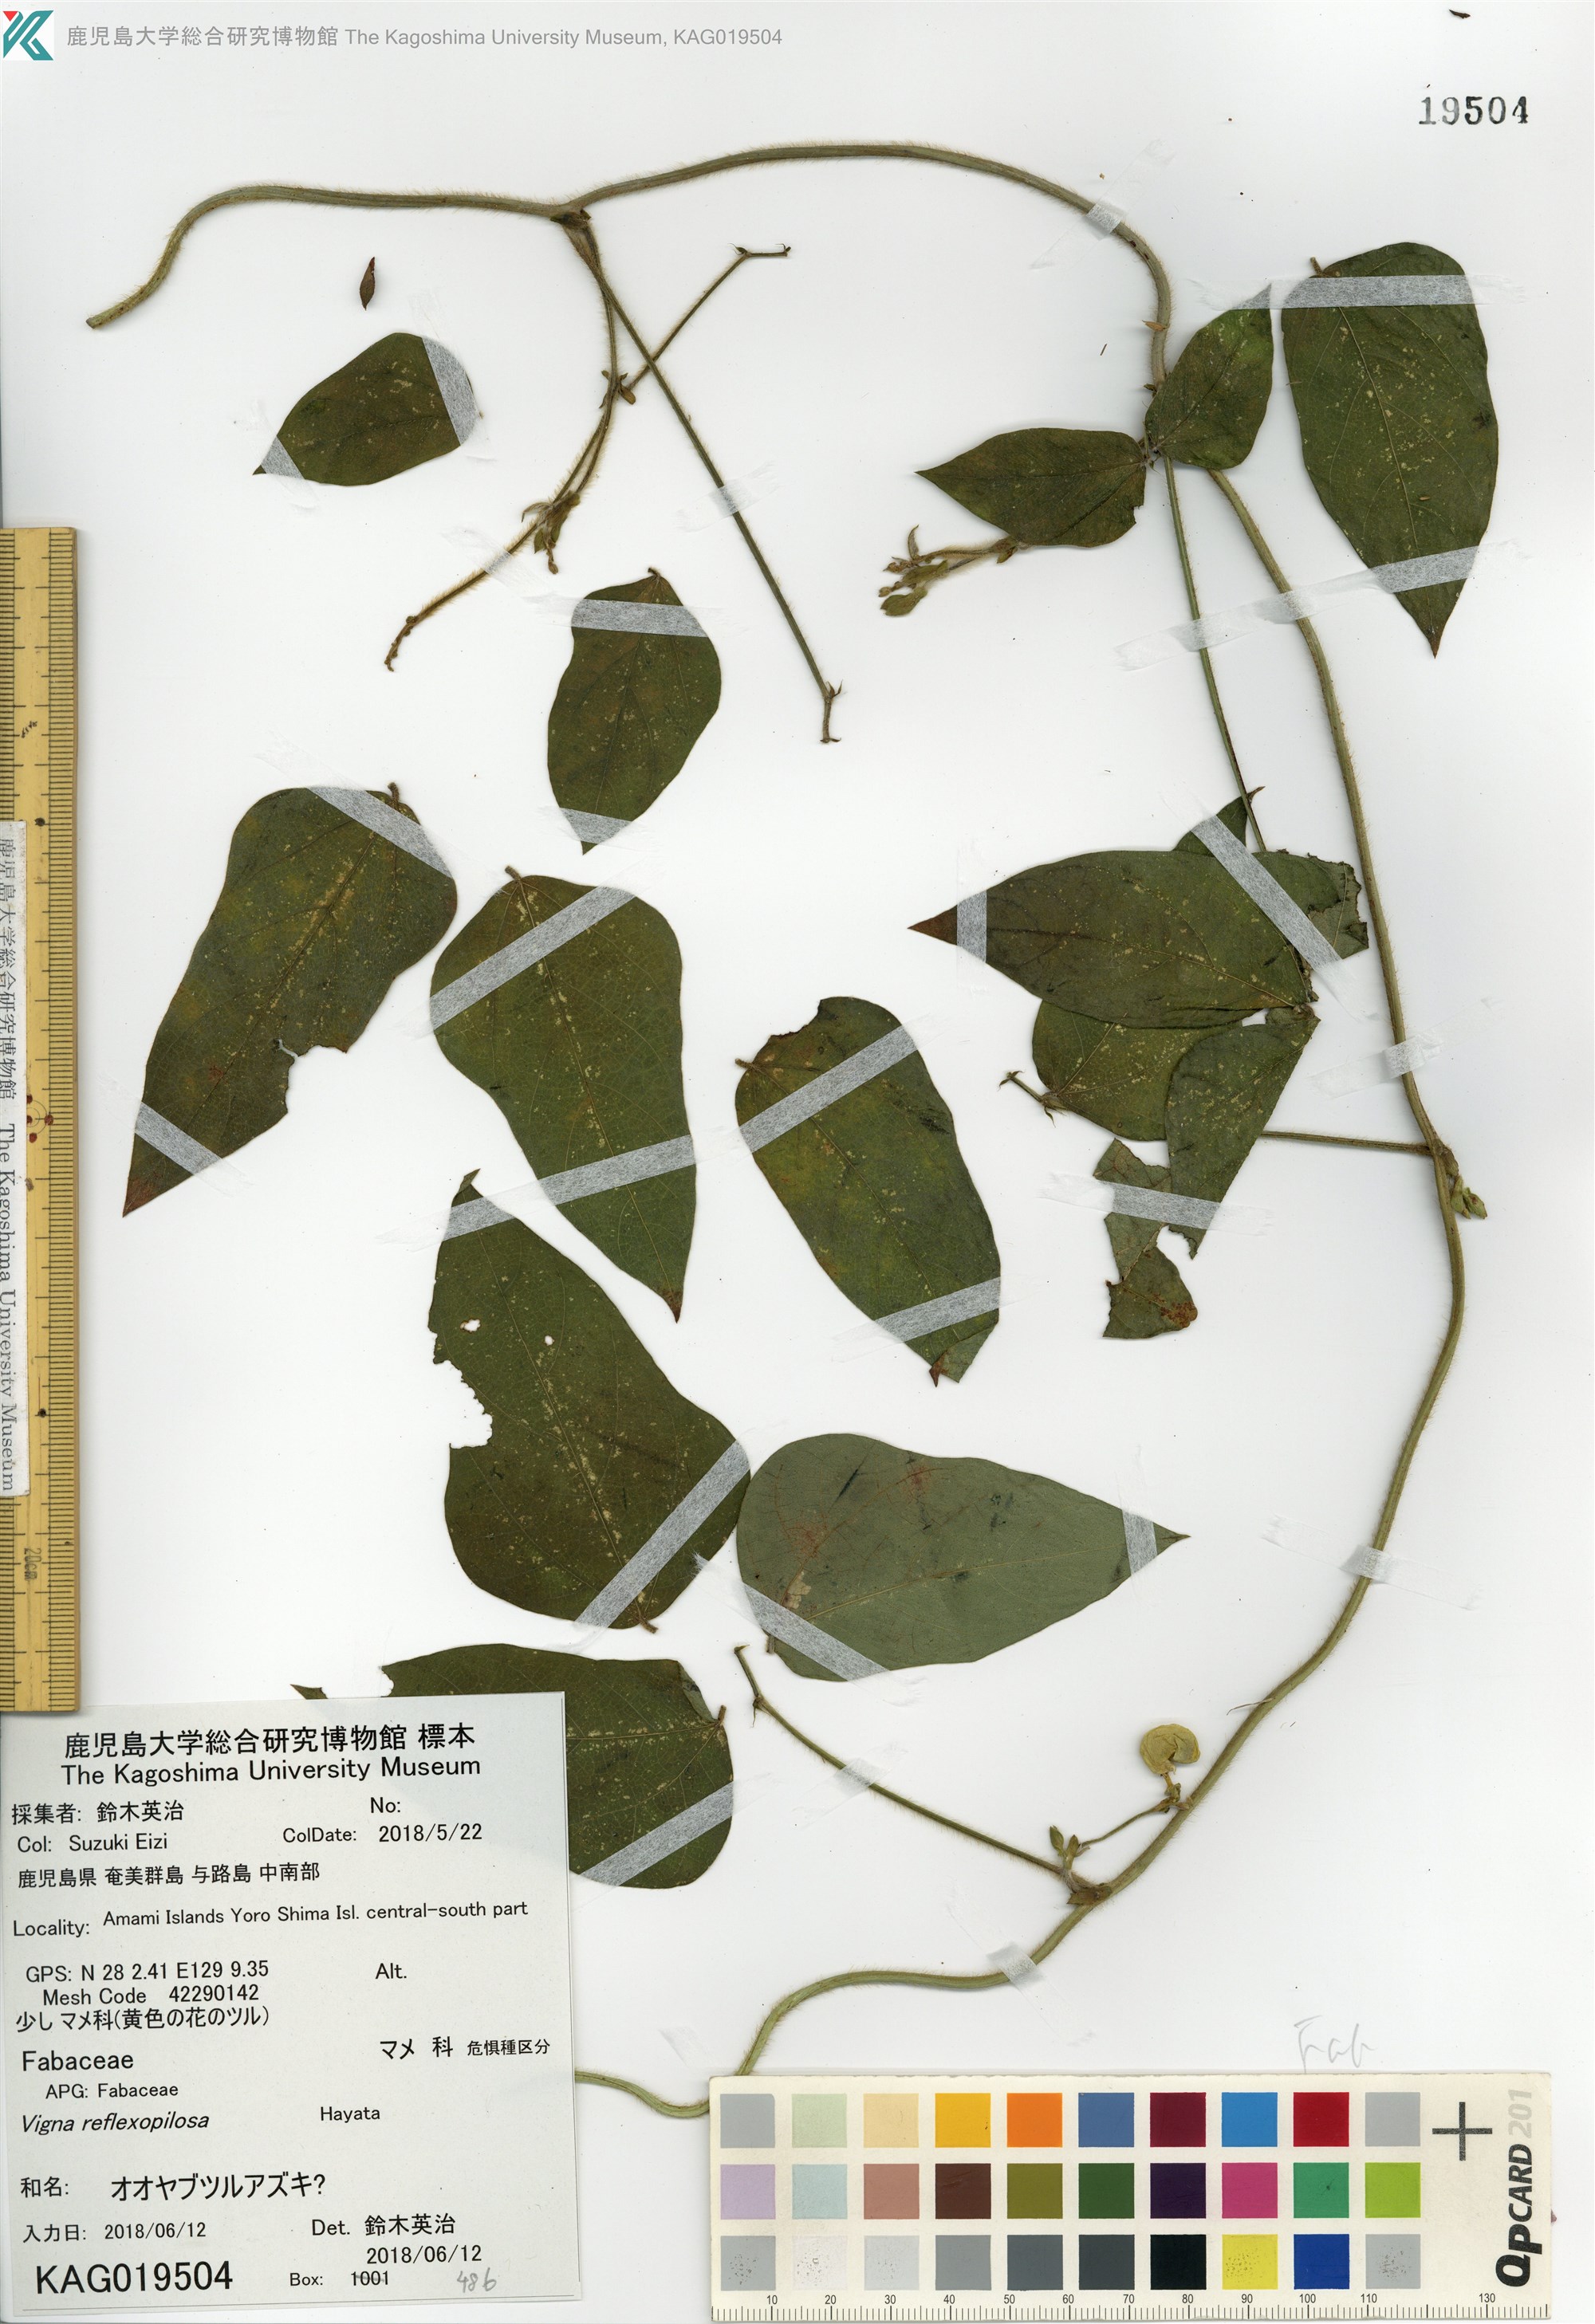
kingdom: Plantae
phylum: Tracheophyta
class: Magnoliopsida
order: Fabales
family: Fabaceae
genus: Vigna
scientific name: Vigna reflexopilosa
